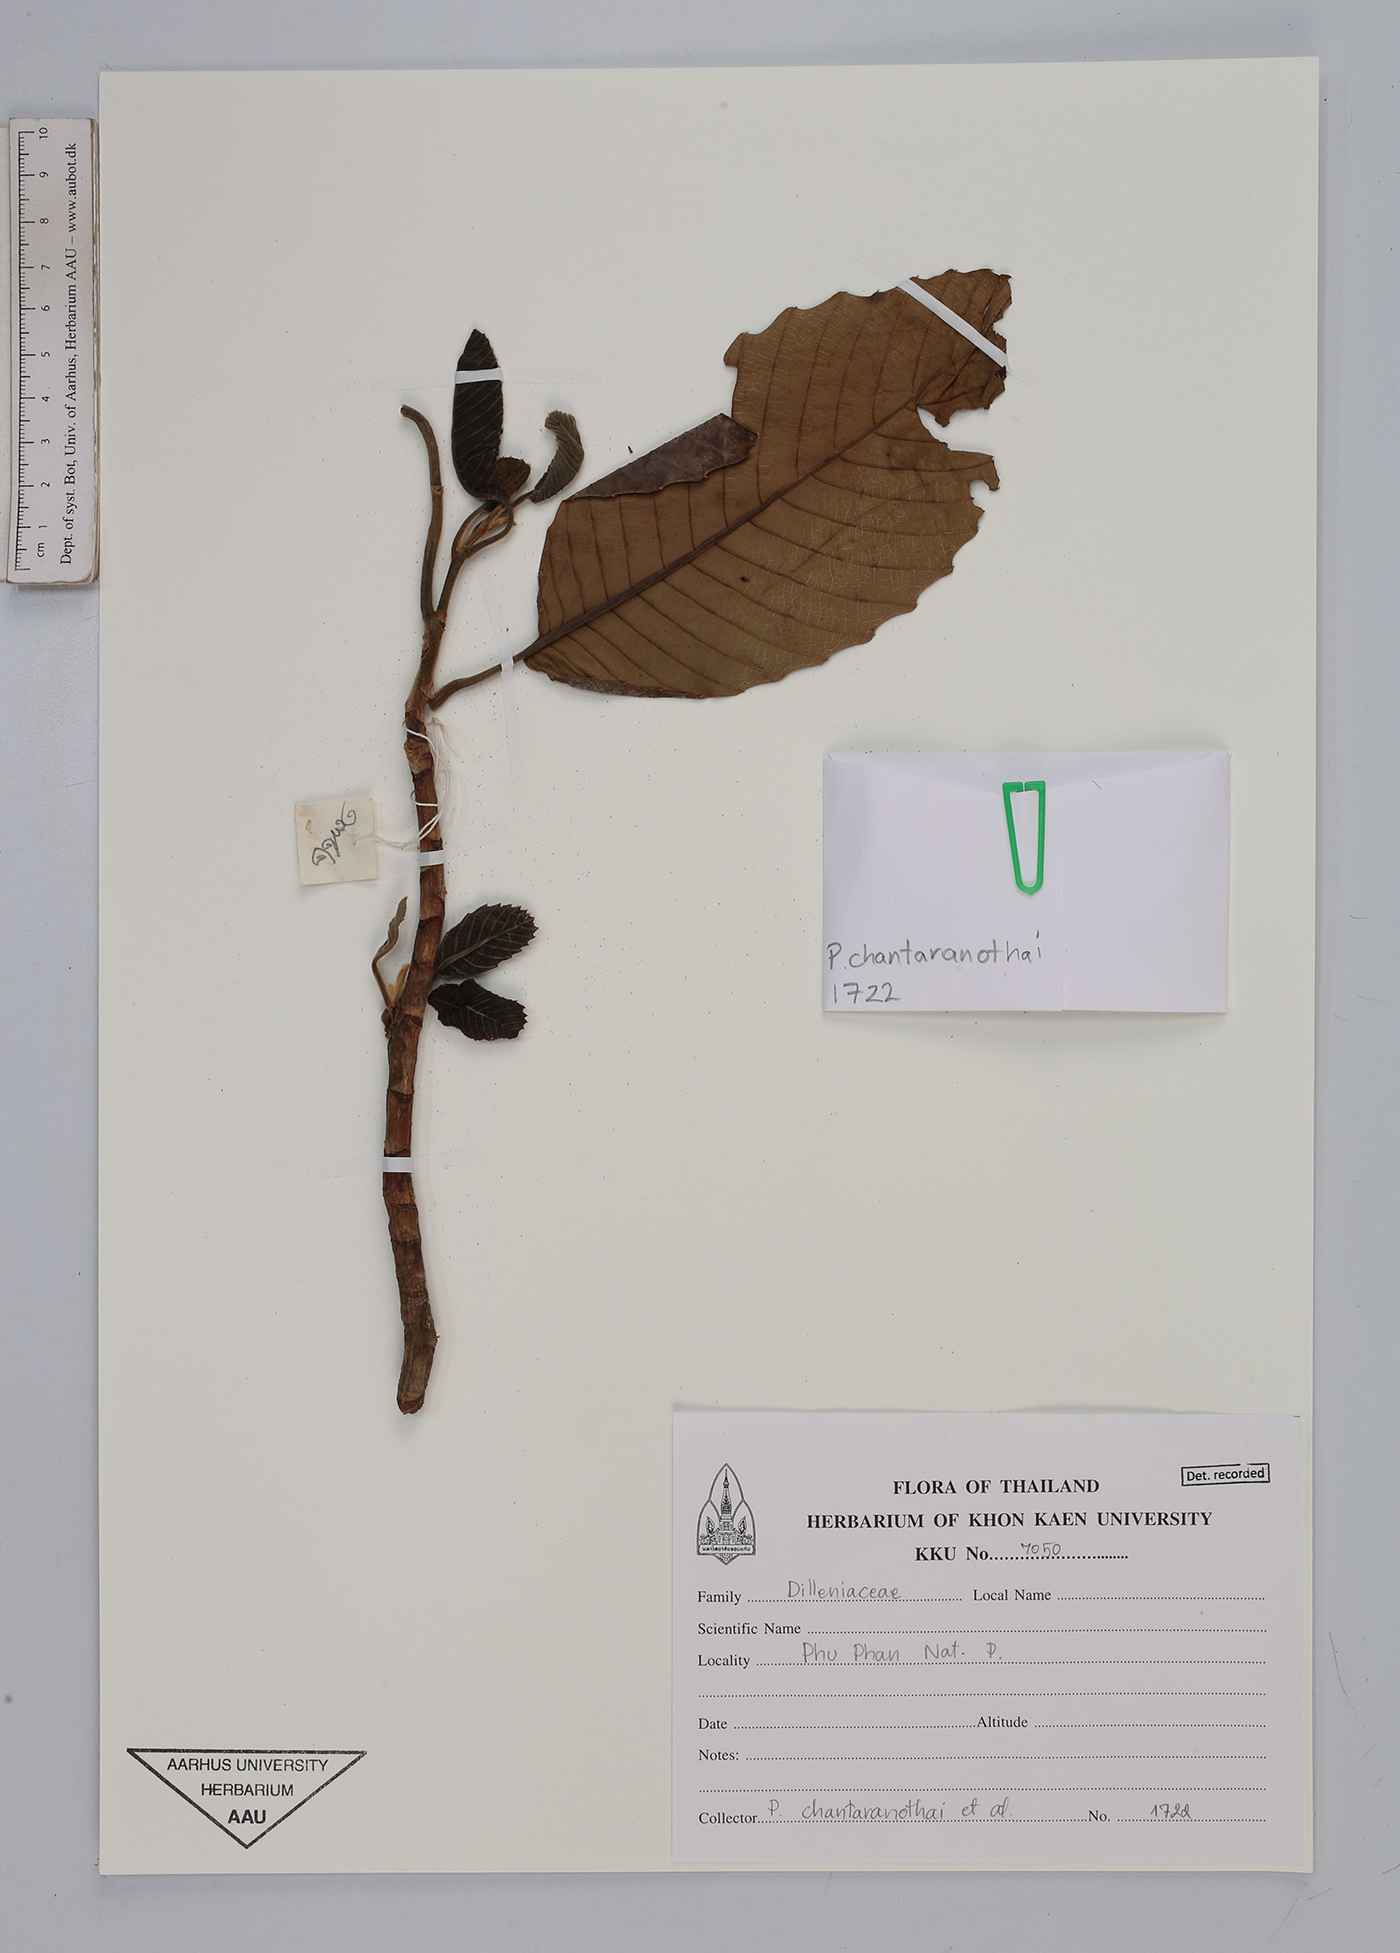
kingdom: Plantae
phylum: Tracheophyta
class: Magnoliopsida
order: Dilleniales
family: Dilleniaceae
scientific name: Dilleniaceae
